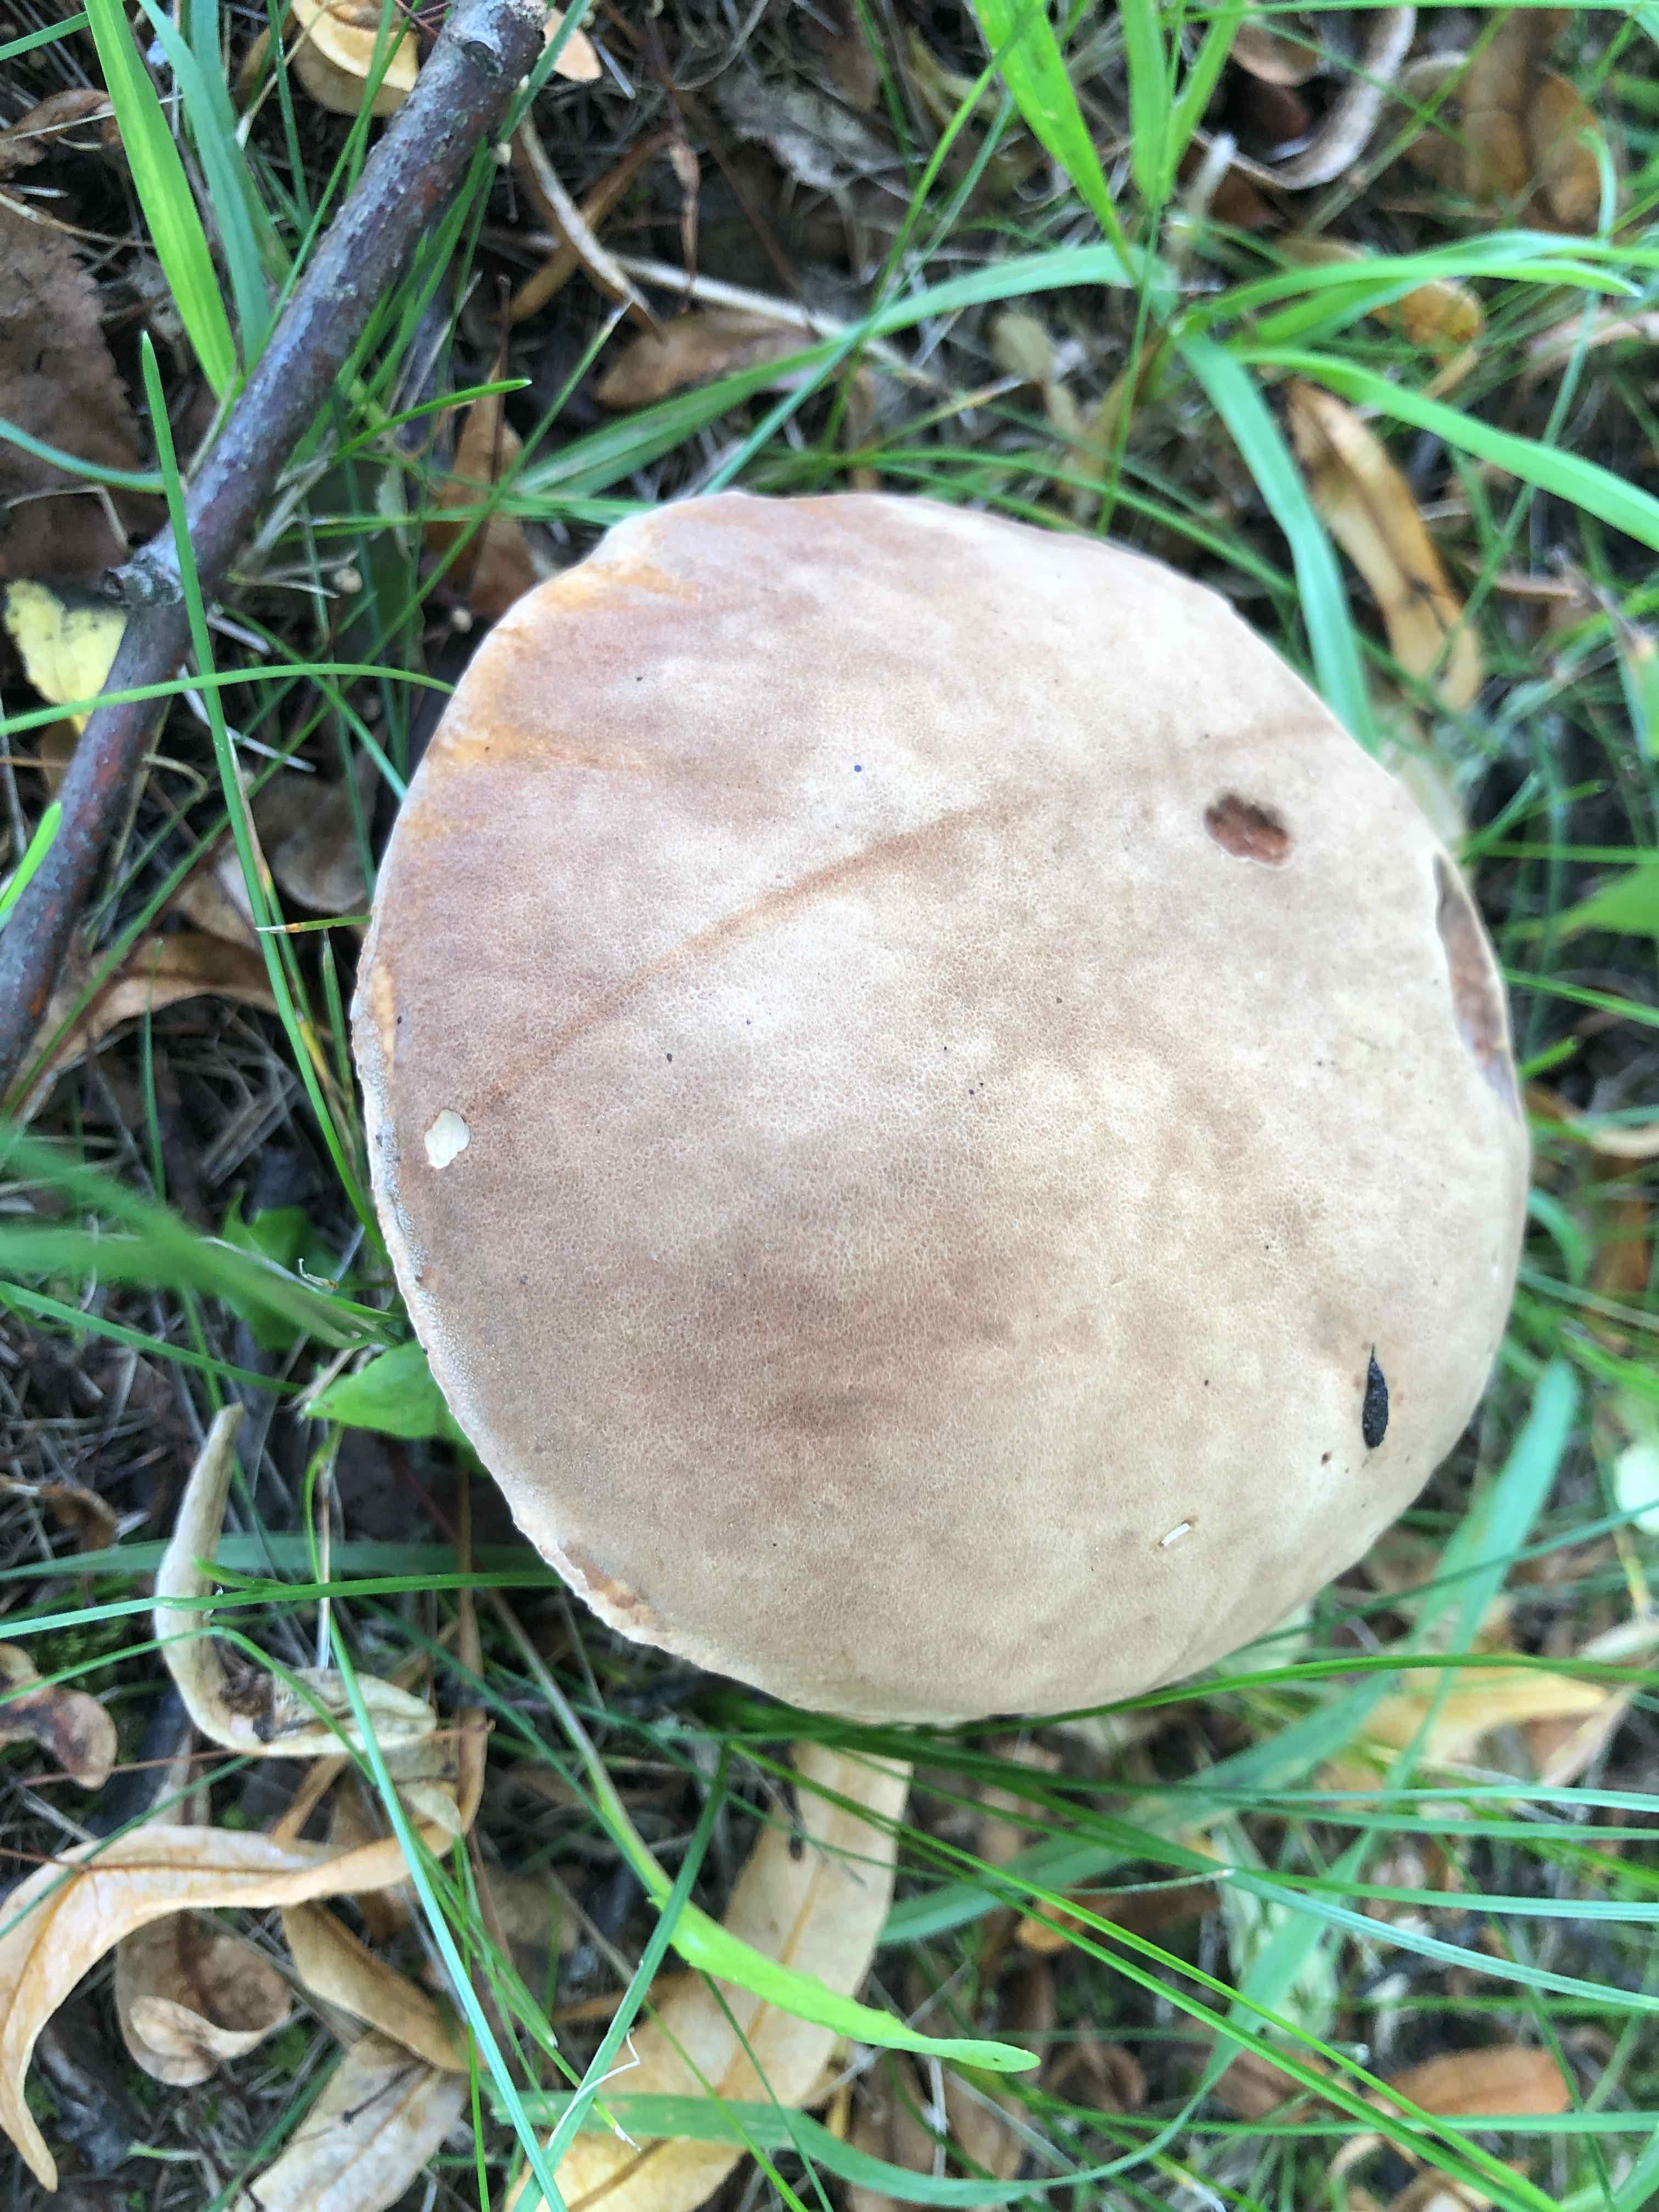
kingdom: Fungi
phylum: Basidiomycota
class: Agaricomycetes
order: Boletales
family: Boletaceae
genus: Boletus
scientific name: Boletus reticulatus
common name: sommer-rørhat
